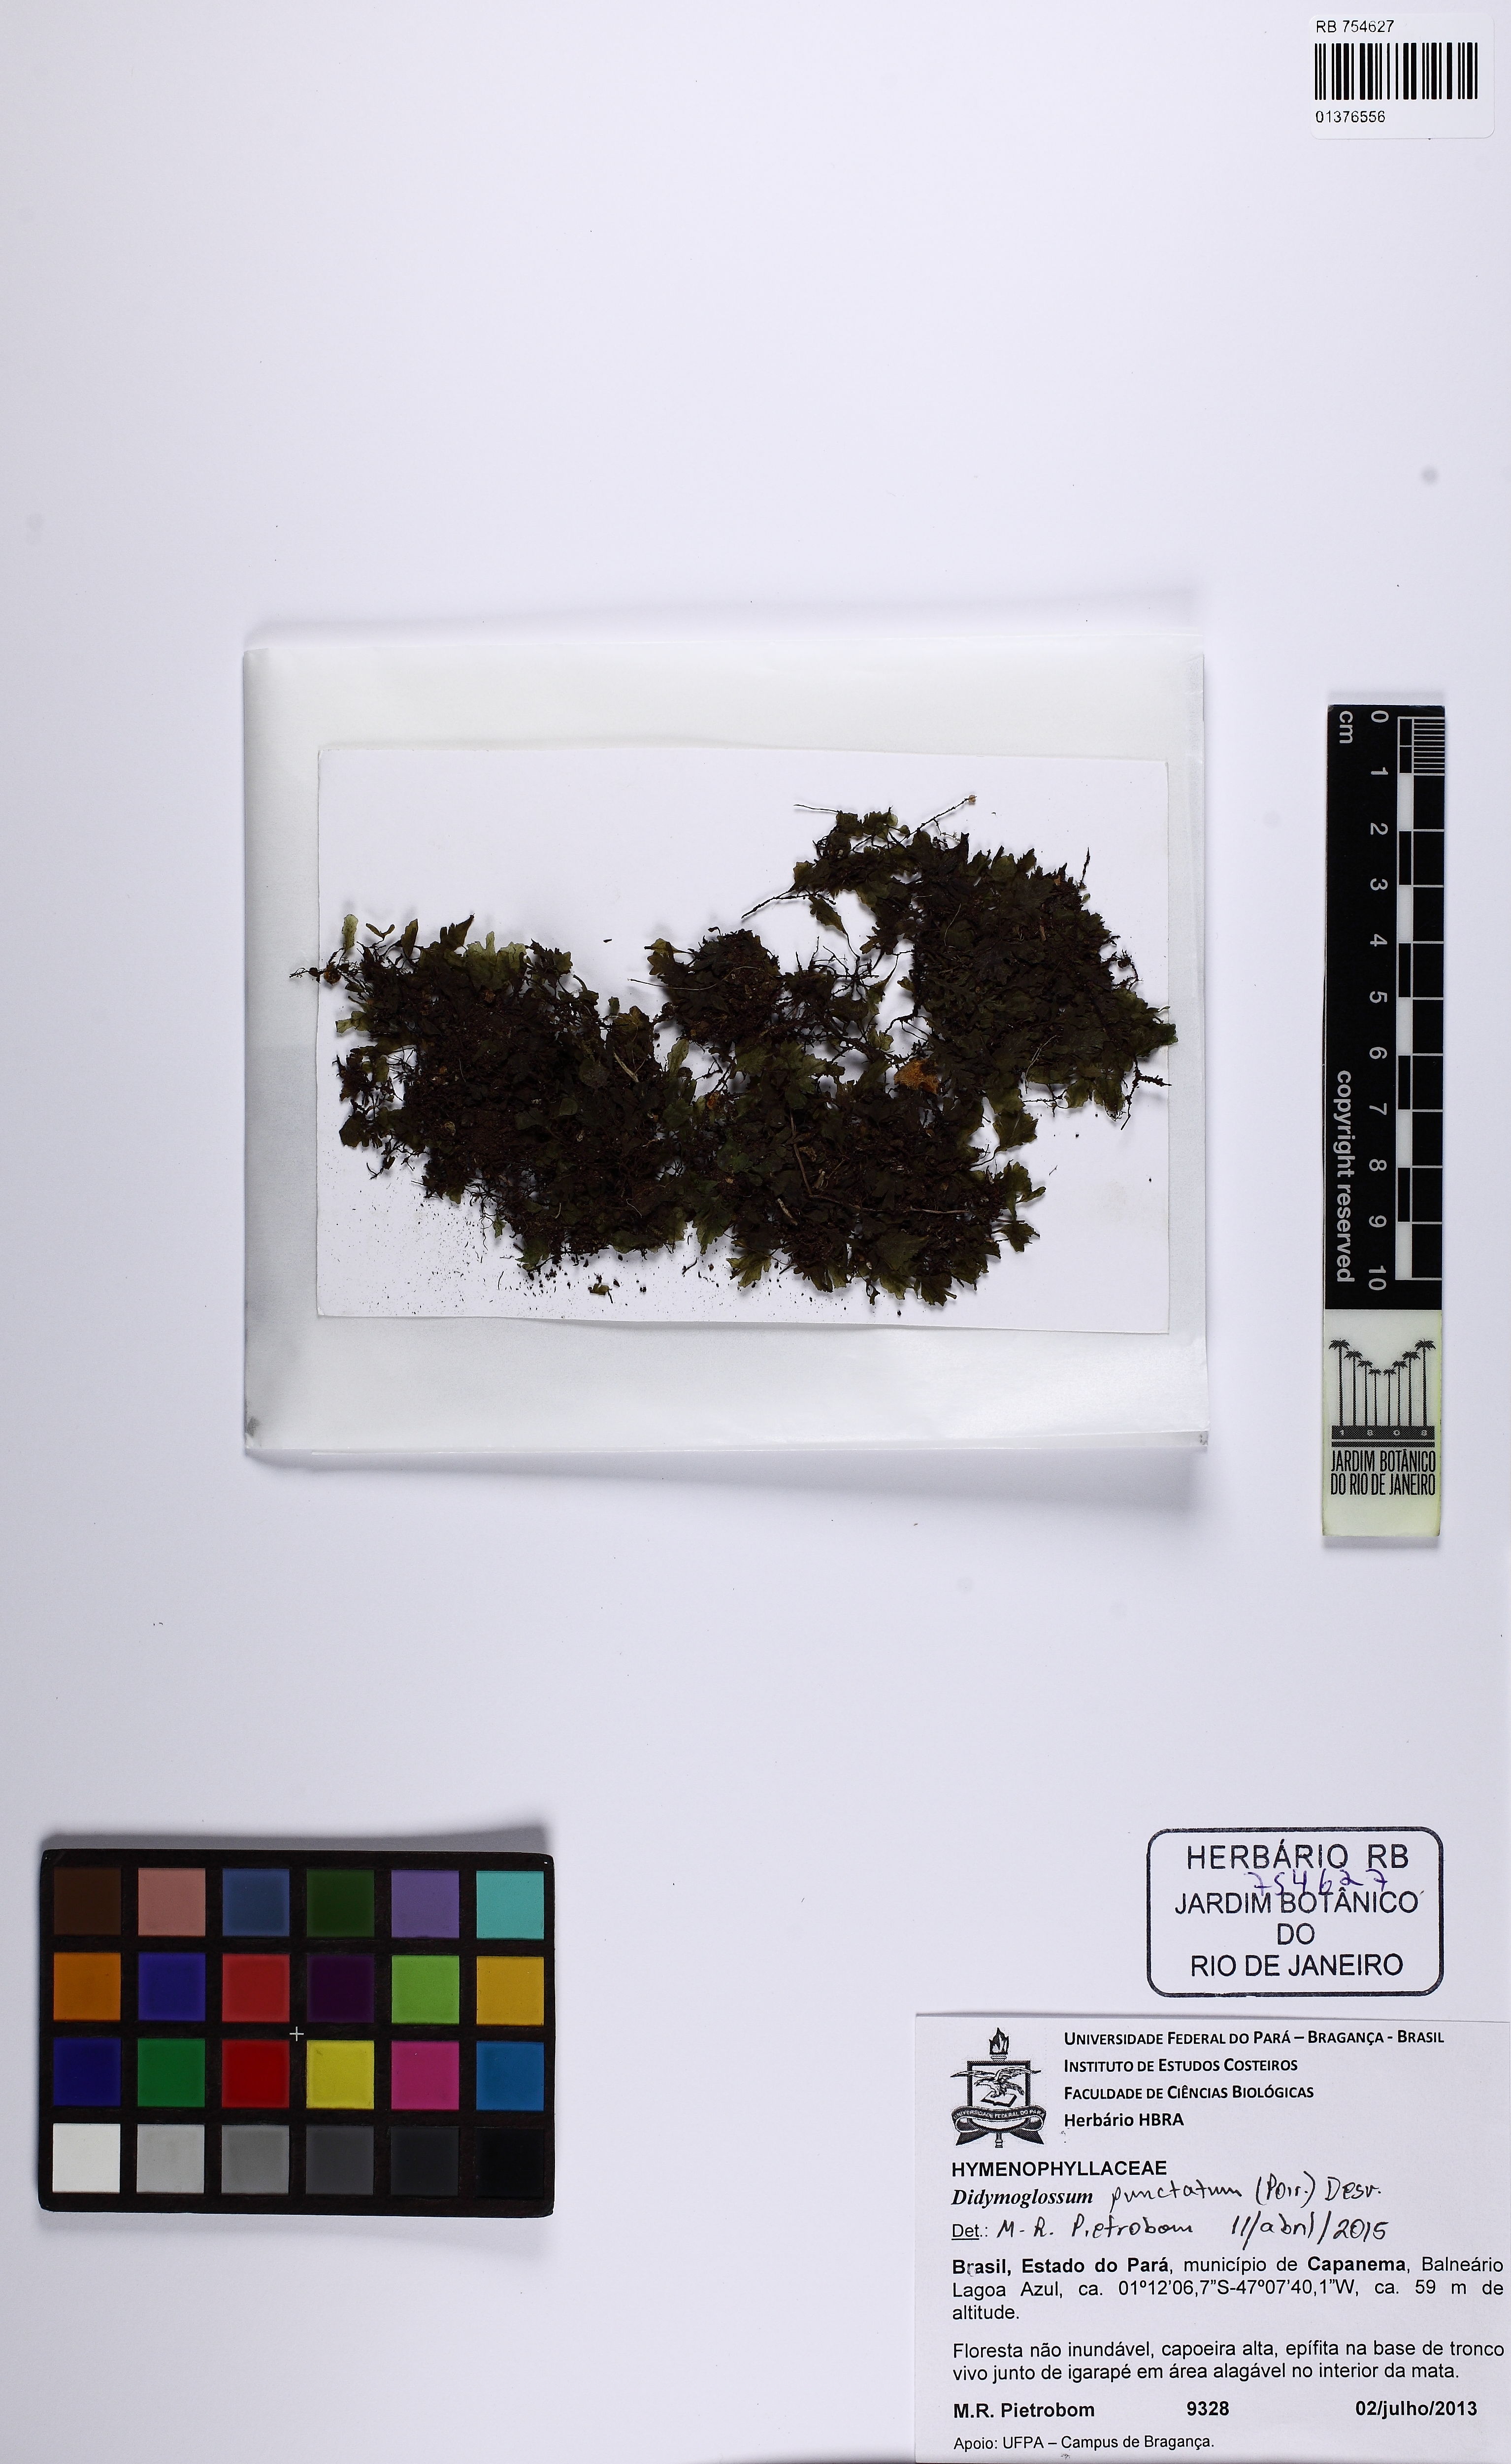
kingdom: Plantae
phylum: Tracheophyta
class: Polypodiopsida
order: Hymenophyllales
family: Hymenophyllaceae
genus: Didymoglossum
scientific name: Didymoglossum punctatum
